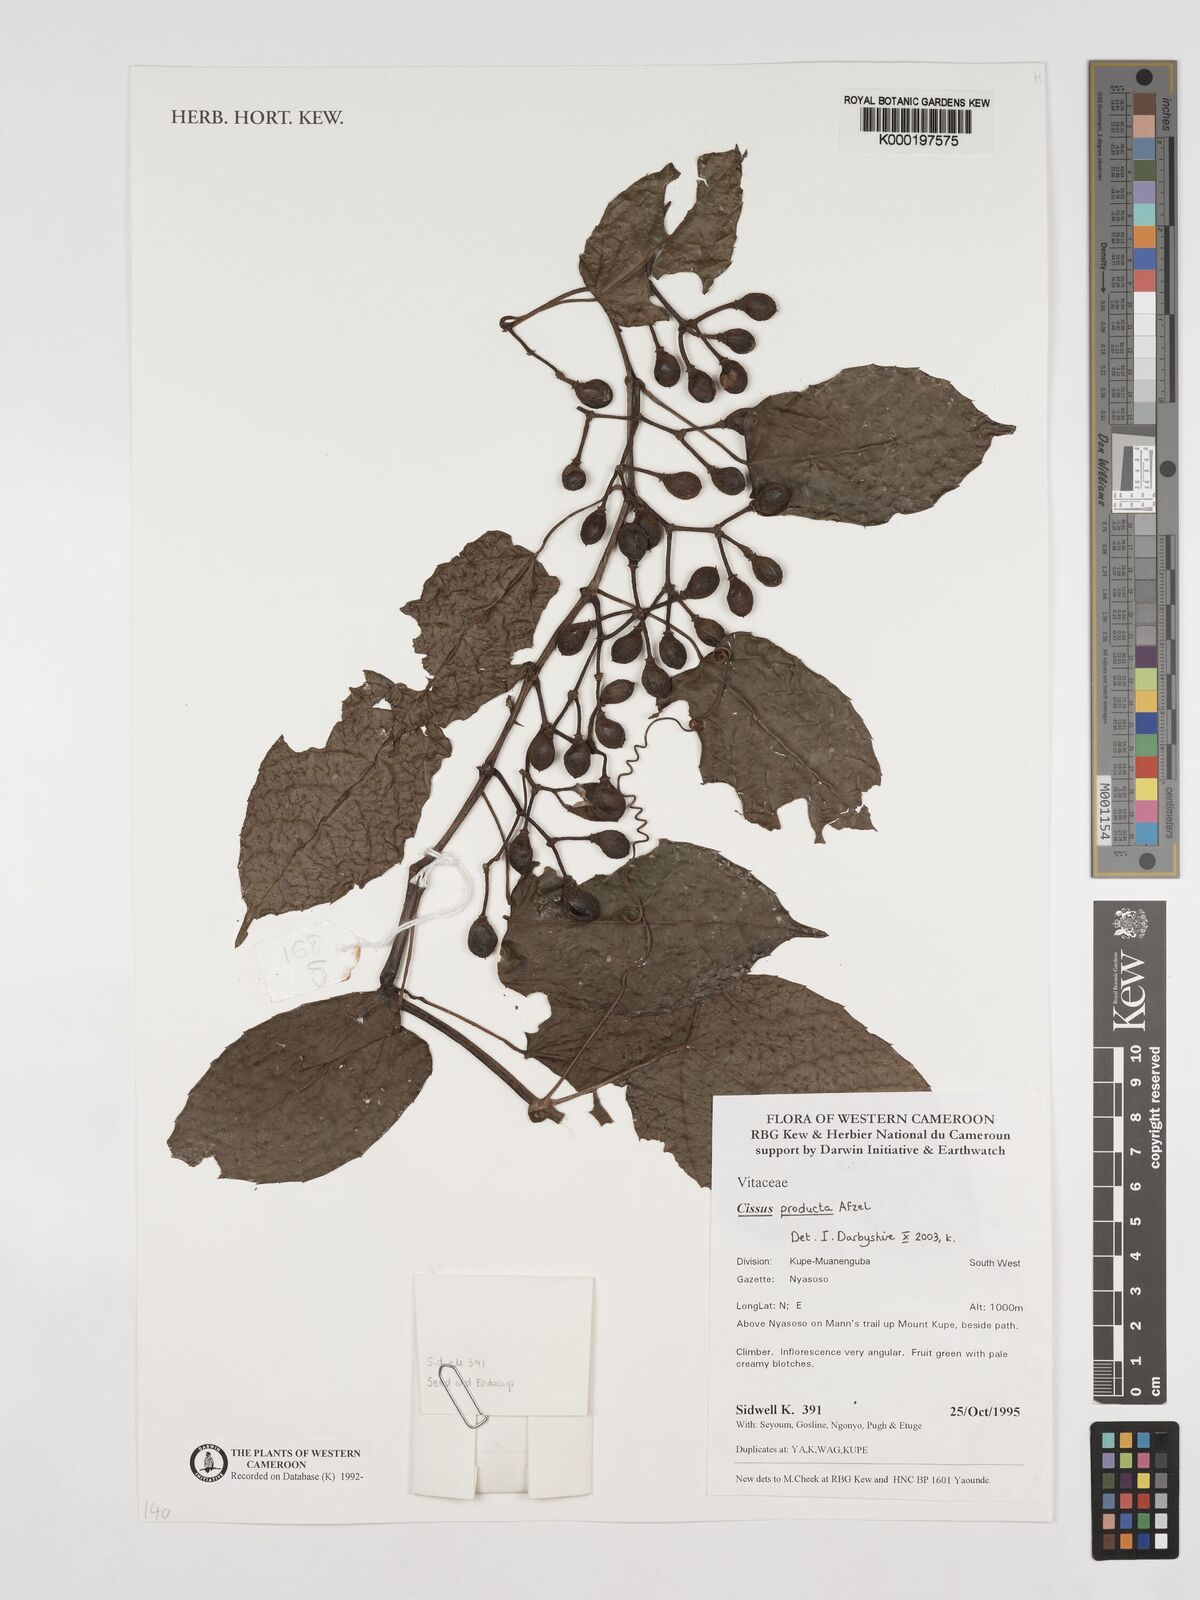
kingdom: Plantae
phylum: Tracheophyta
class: Magnoliopsida
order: Vitales
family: Vitaceae
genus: Cissus
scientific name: Cissus producta
